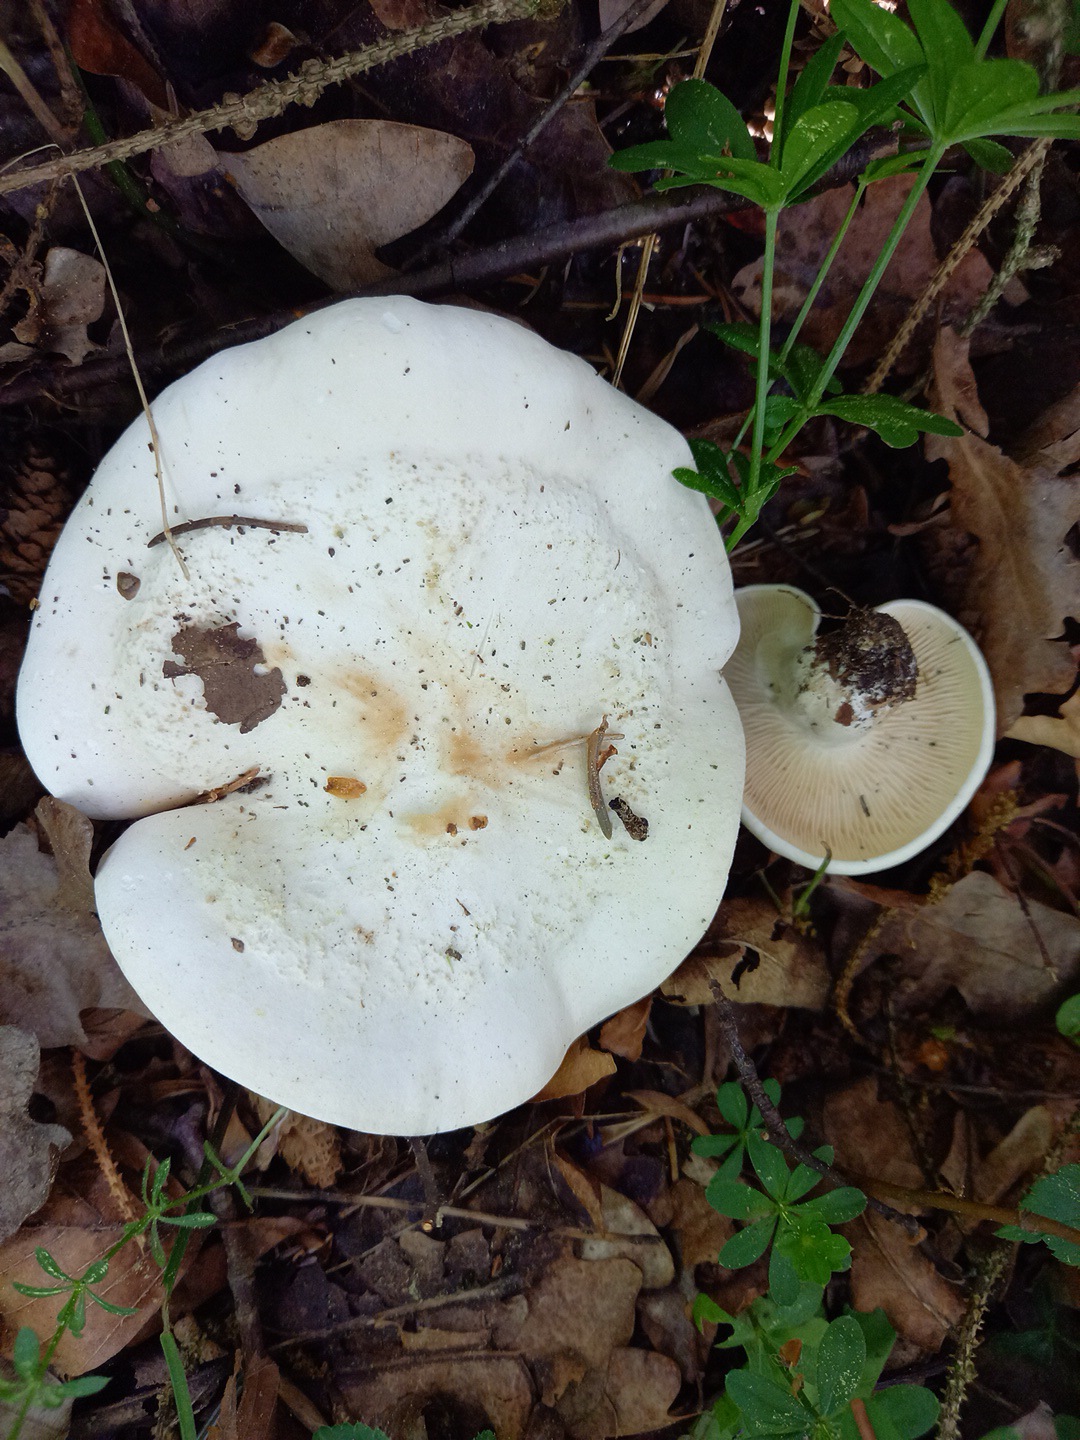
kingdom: Fungi
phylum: Basidiomycota
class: Agaricomycetes
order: Agaricales
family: Lyophyllaceae
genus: Calocybe
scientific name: Calocybe gambosa
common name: vårmusseron
